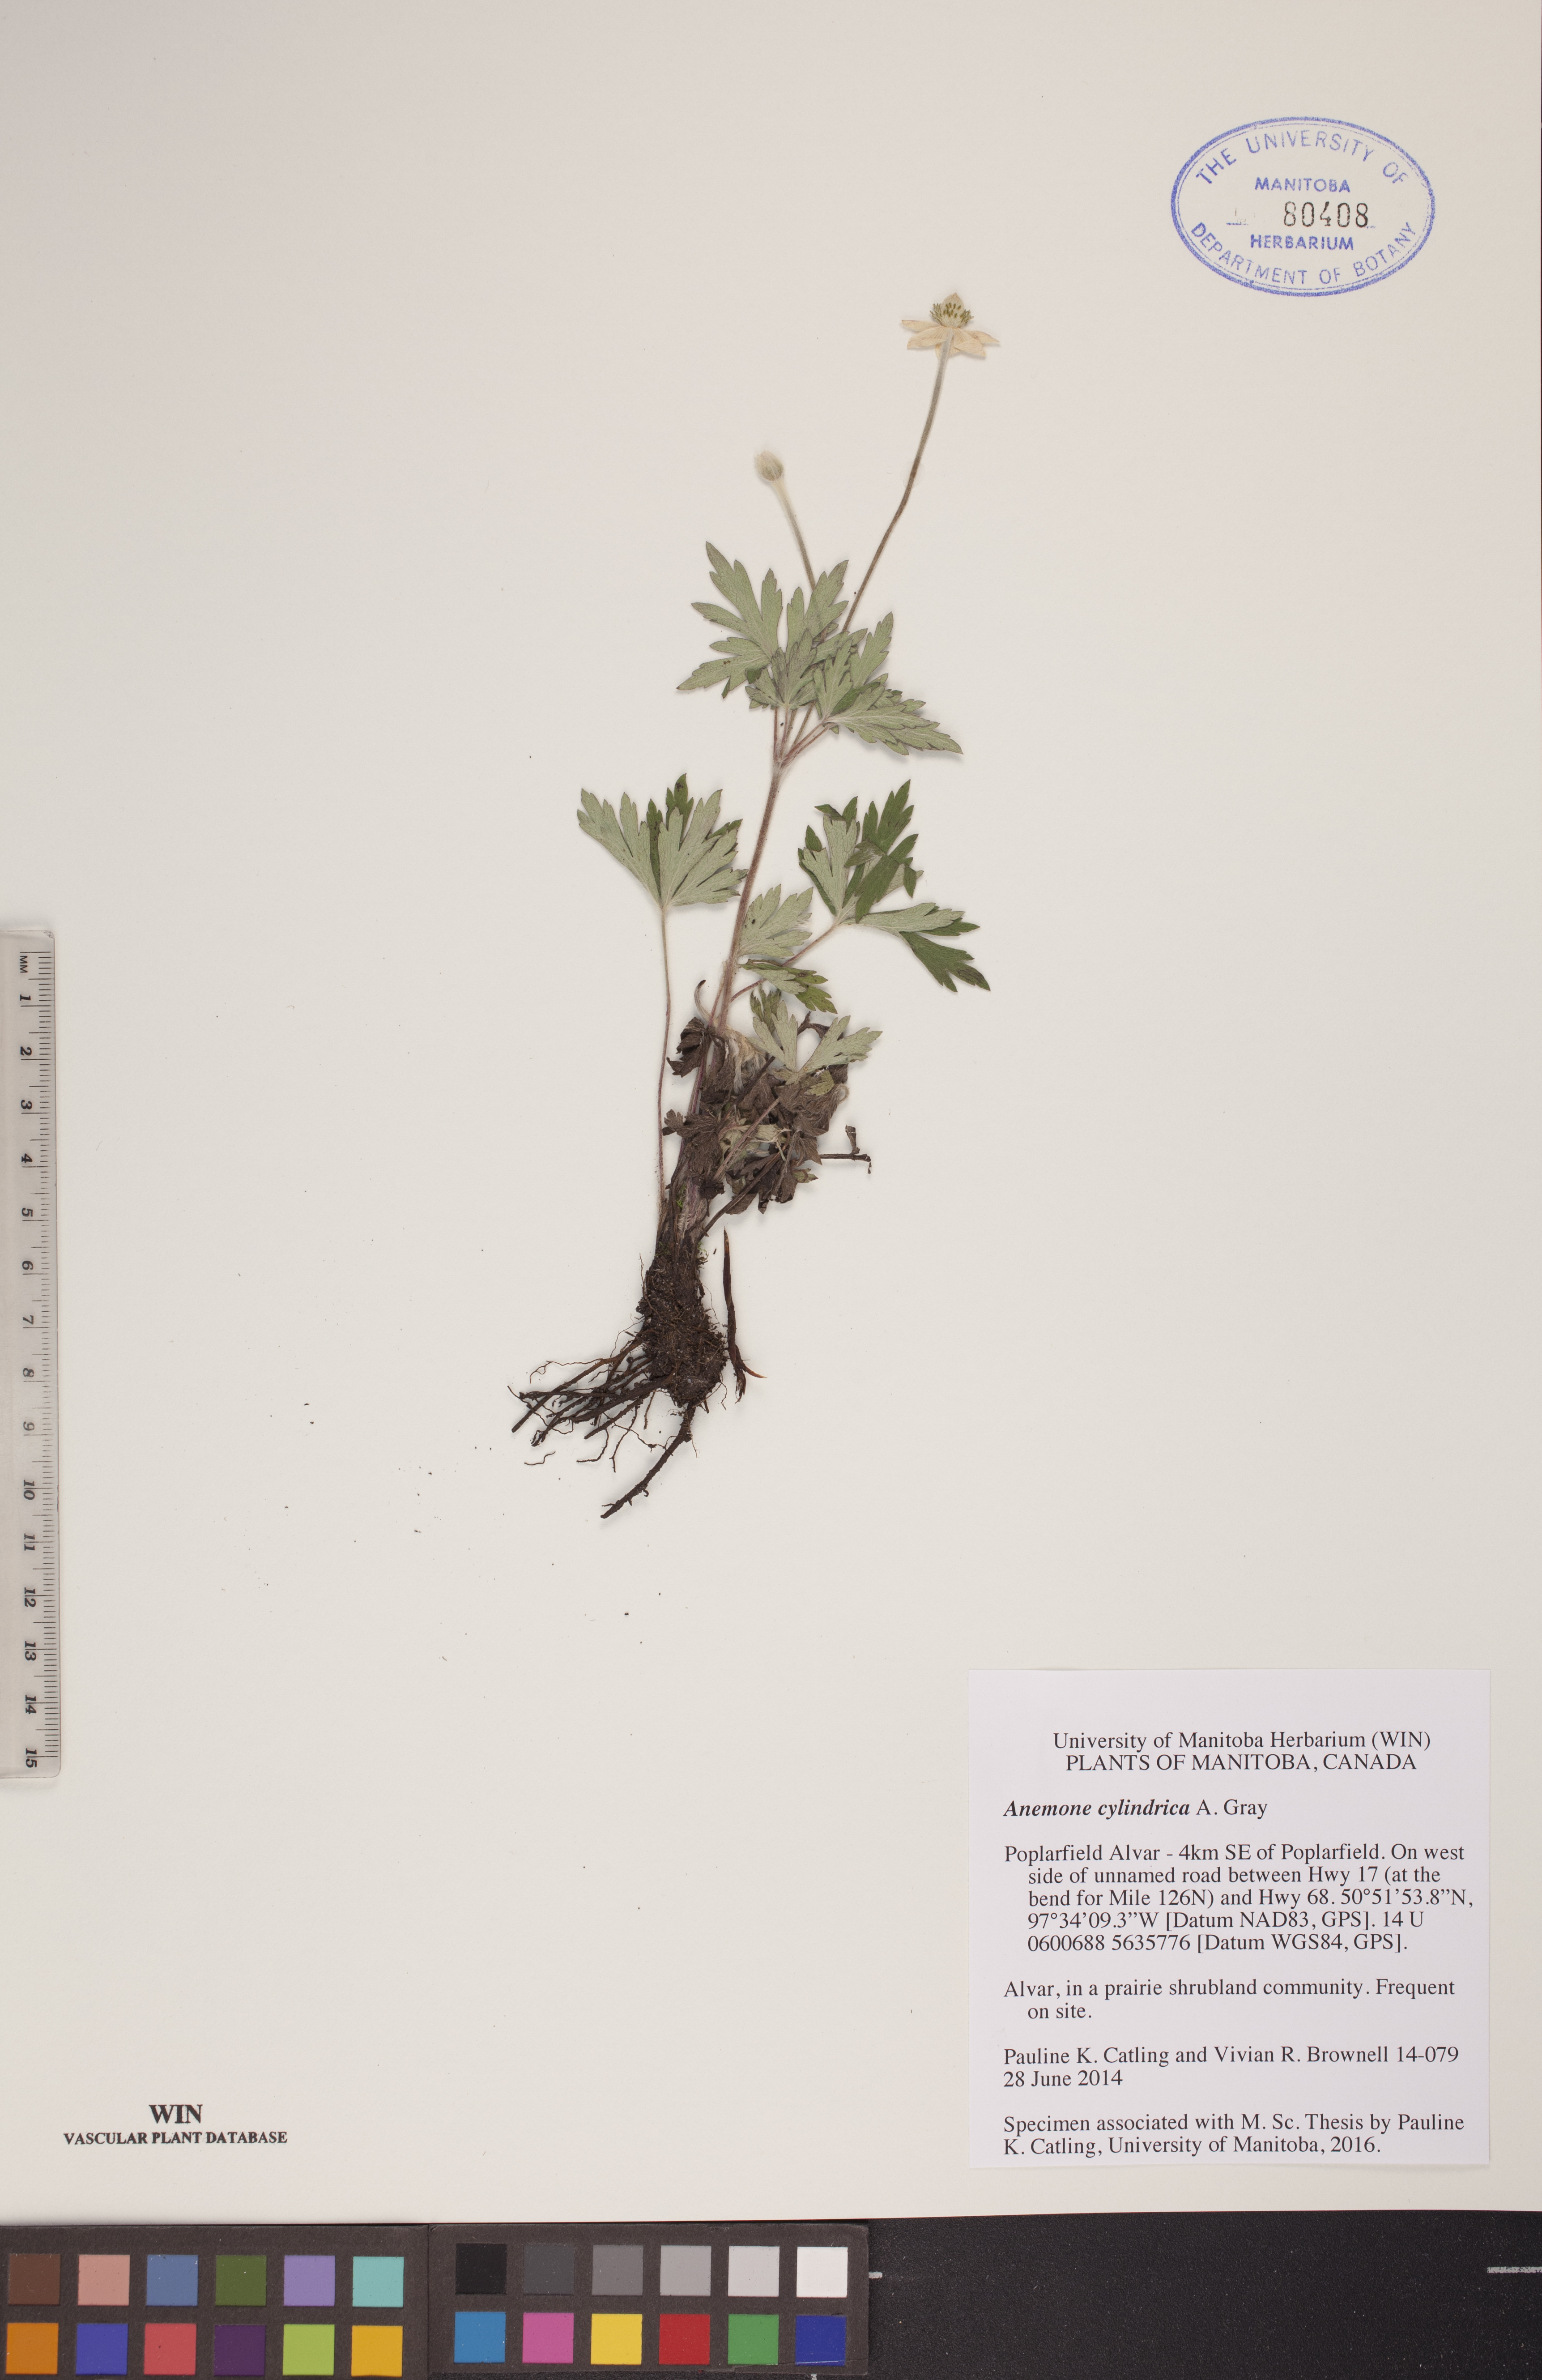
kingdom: Plantae
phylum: Tracheophyta
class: Magnoliopsida
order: Ranunculales
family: Ranunculaceae
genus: Anemone
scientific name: Anemone cylindrica
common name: Candle anemone
